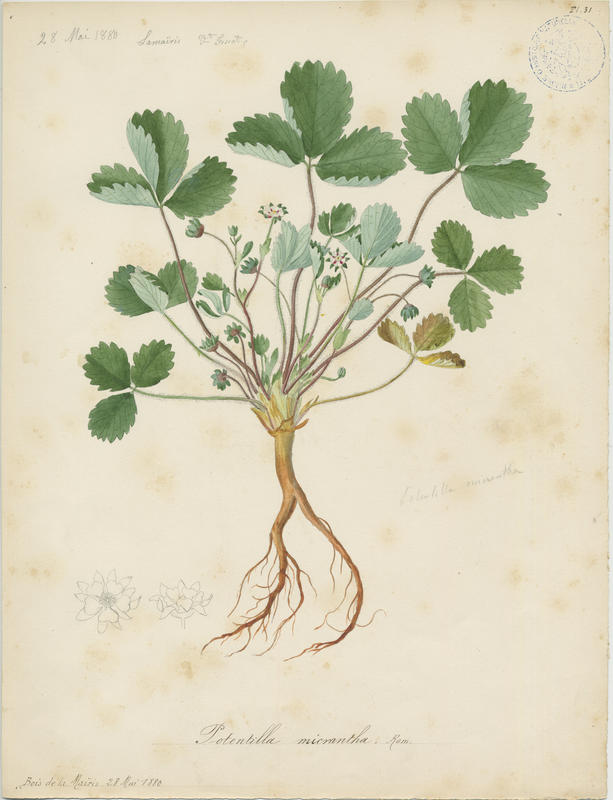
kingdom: Plantae
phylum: Tracheophyta
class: Magnoliopsida
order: Rosales
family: Rosaceae
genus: Potentilla
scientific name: Potentilla micrantha
